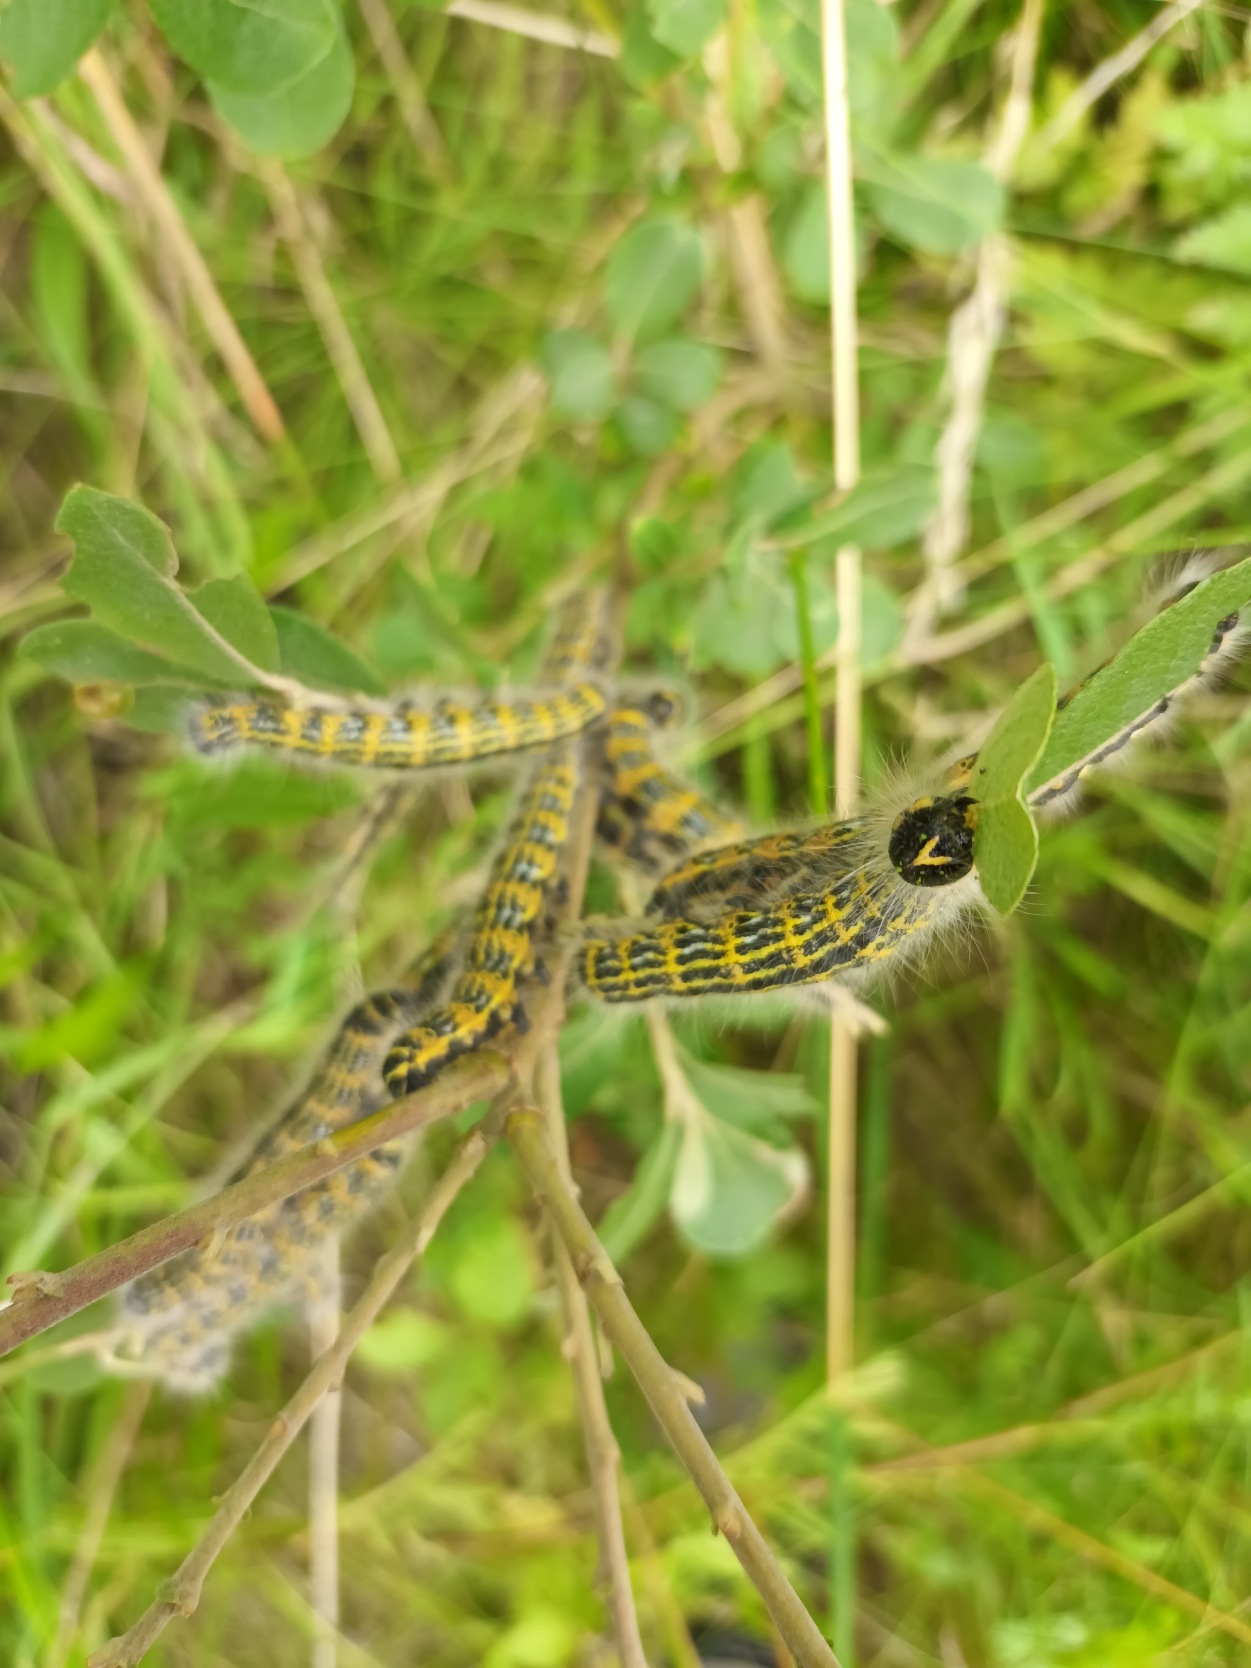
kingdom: Animalia
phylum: Arthropoda
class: Insecta
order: Lepidoptera
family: Notodontidae
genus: Phalera
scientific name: Phalera bucephala
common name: Måneplet
